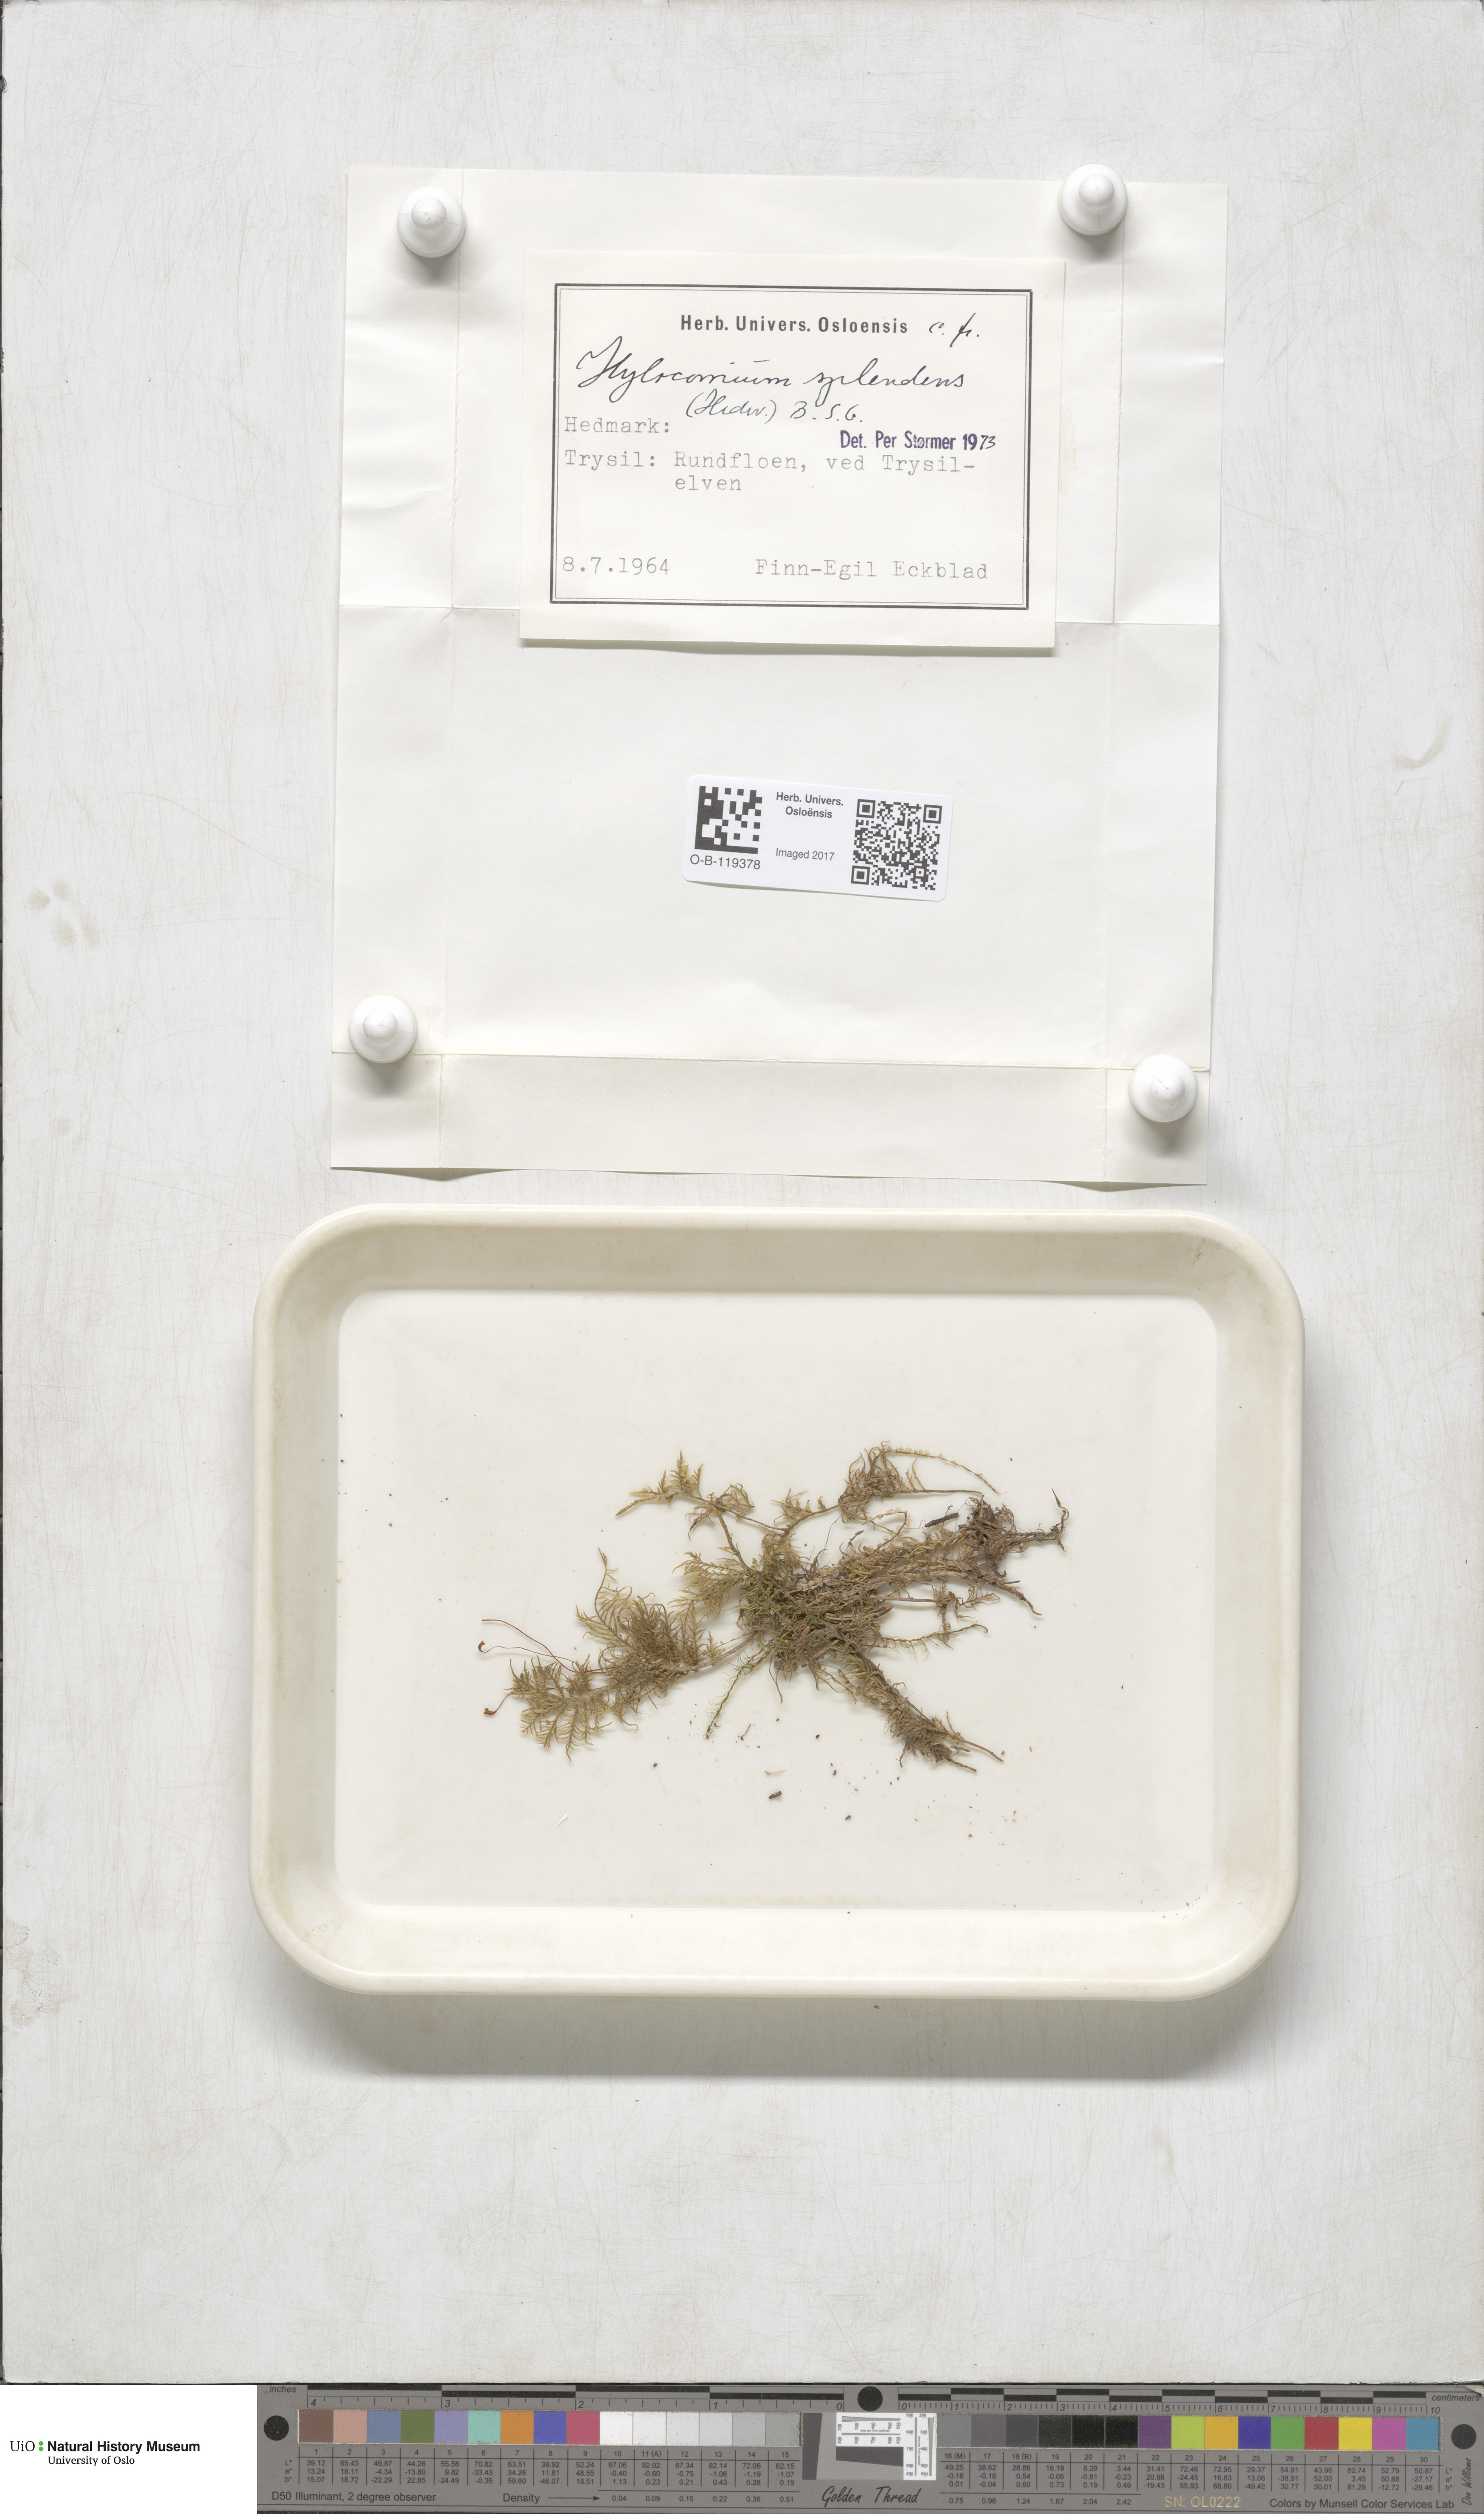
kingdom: Plantae
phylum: Bryophyta
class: Bryopsida
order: Hypnales
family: Hylocomiaceae
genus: Hylocomium
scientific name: Hylocomium splendens
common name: Stairstep moss
